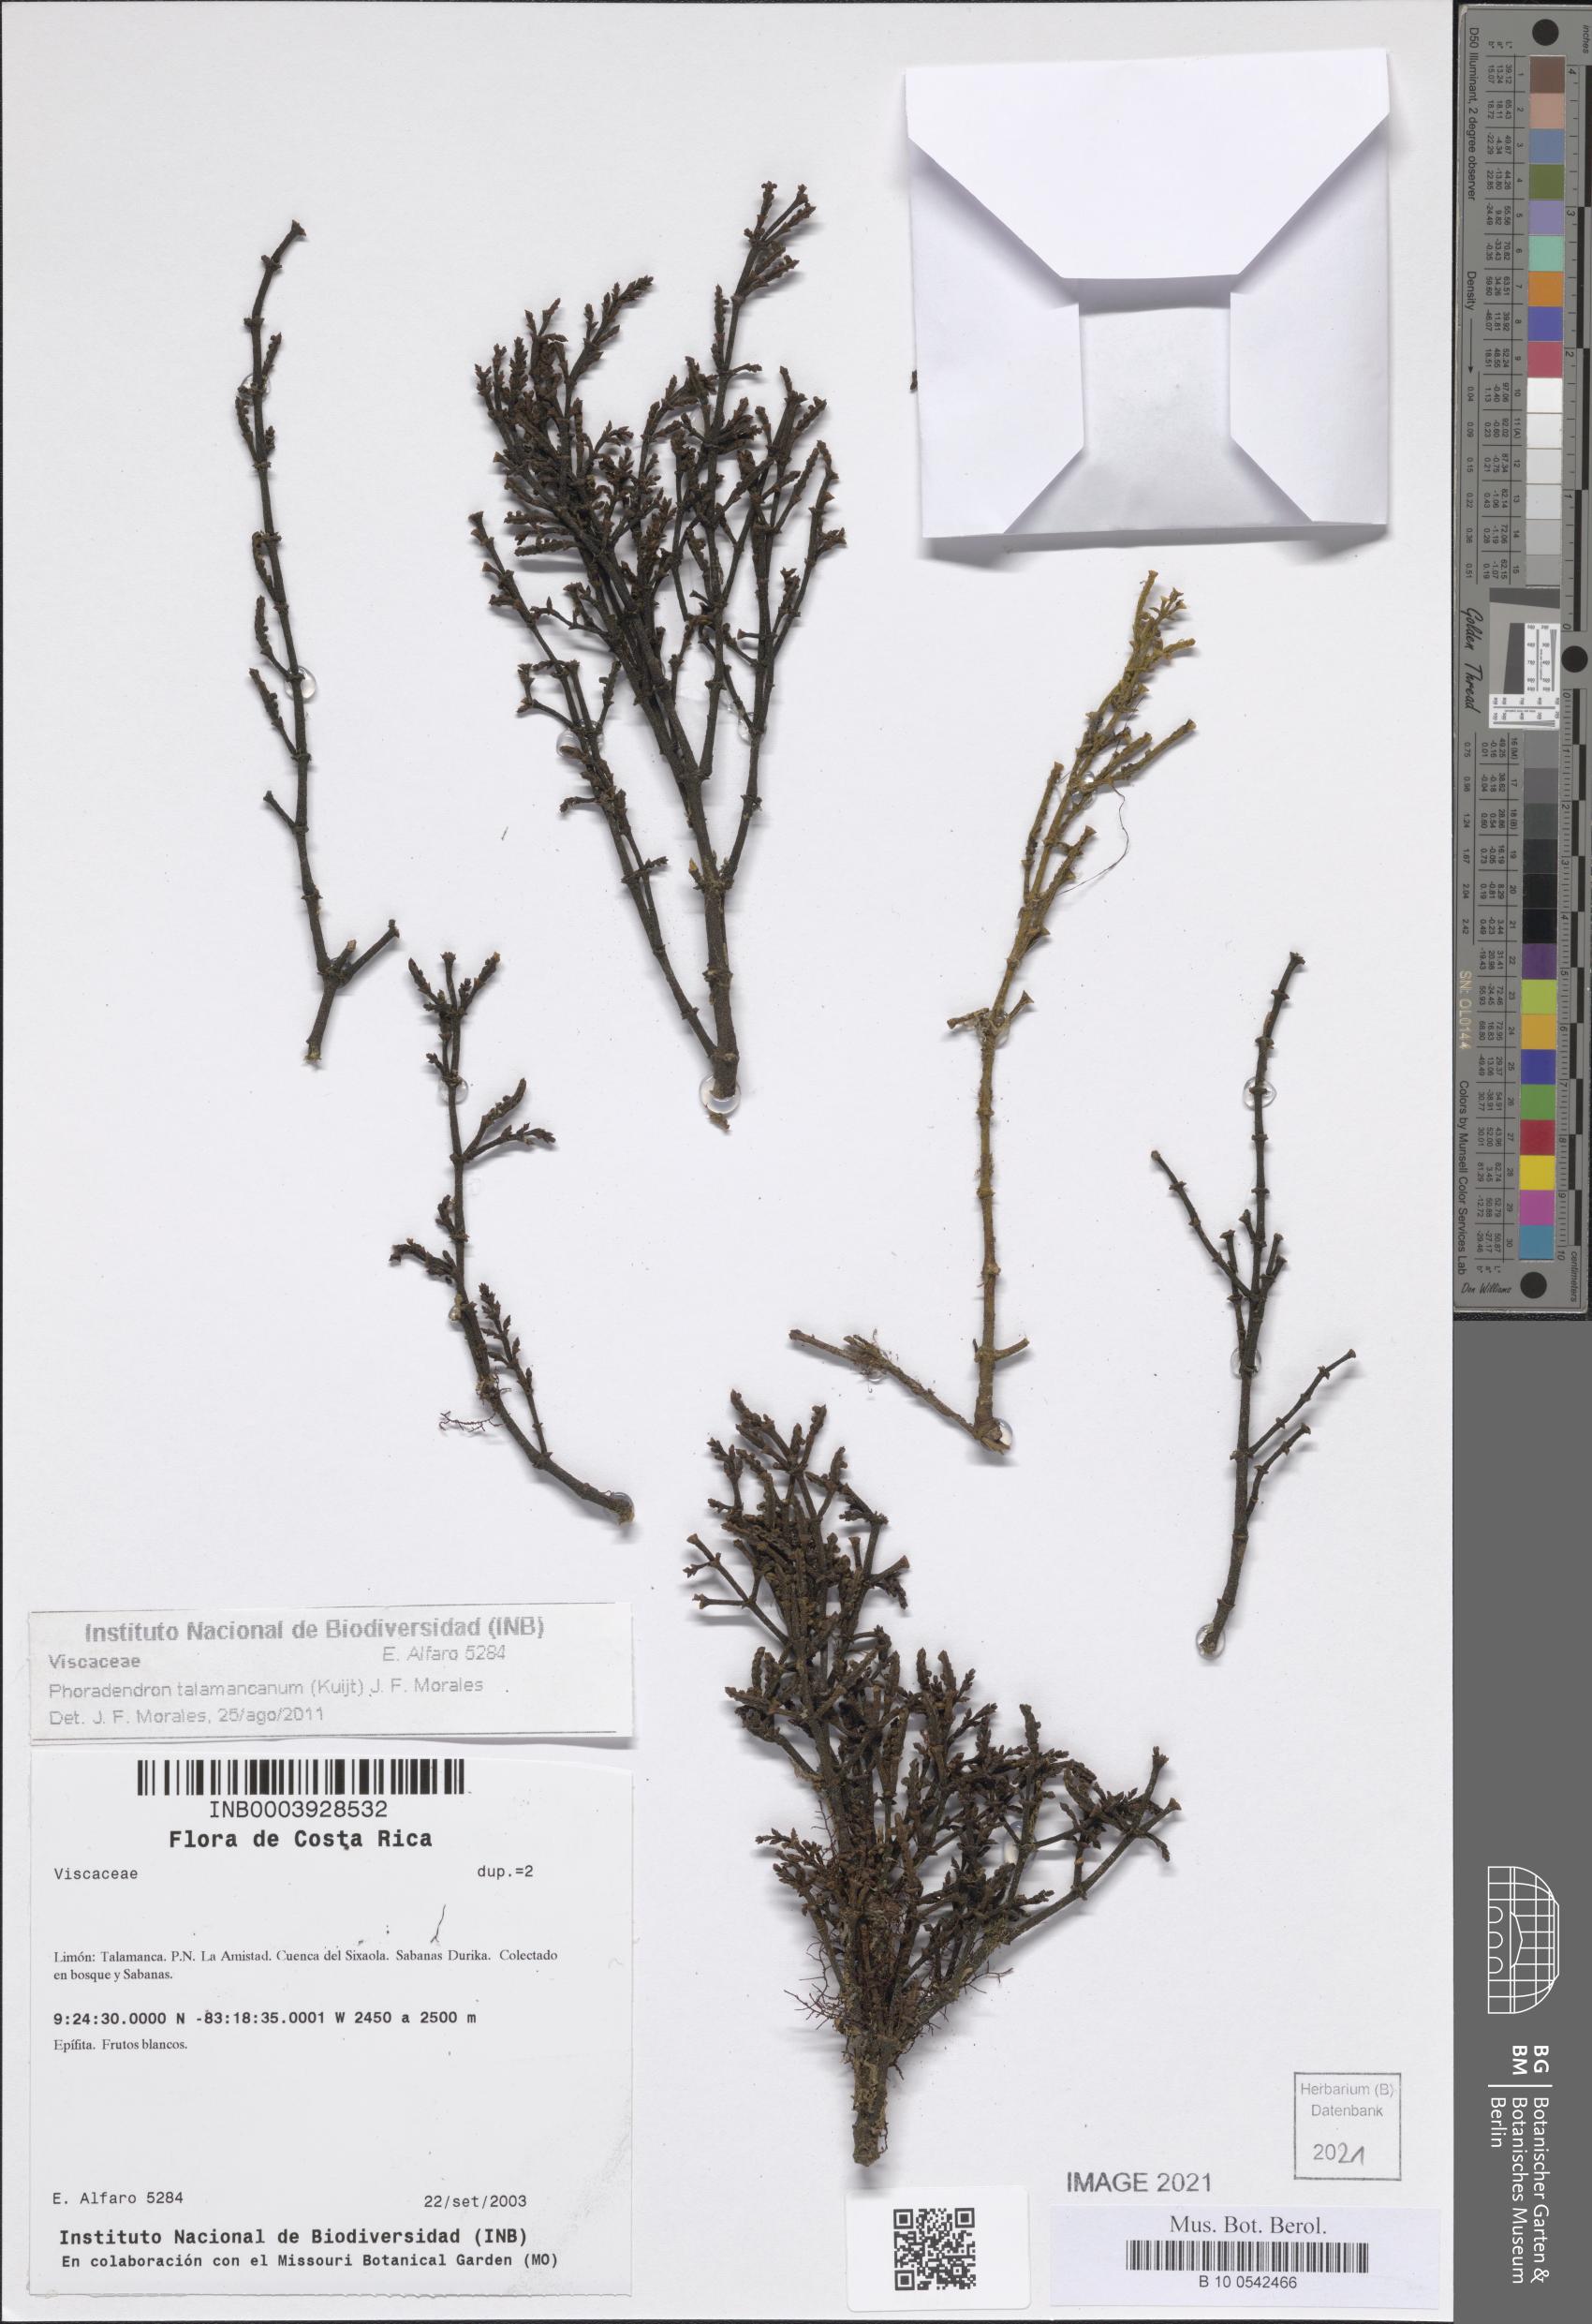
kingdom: Plantae
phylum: Tracheophyta
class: Magnoliopsida
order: Santalales
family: Viscaceae
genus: Phoradendron
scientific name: Phoradendron talamancanum
